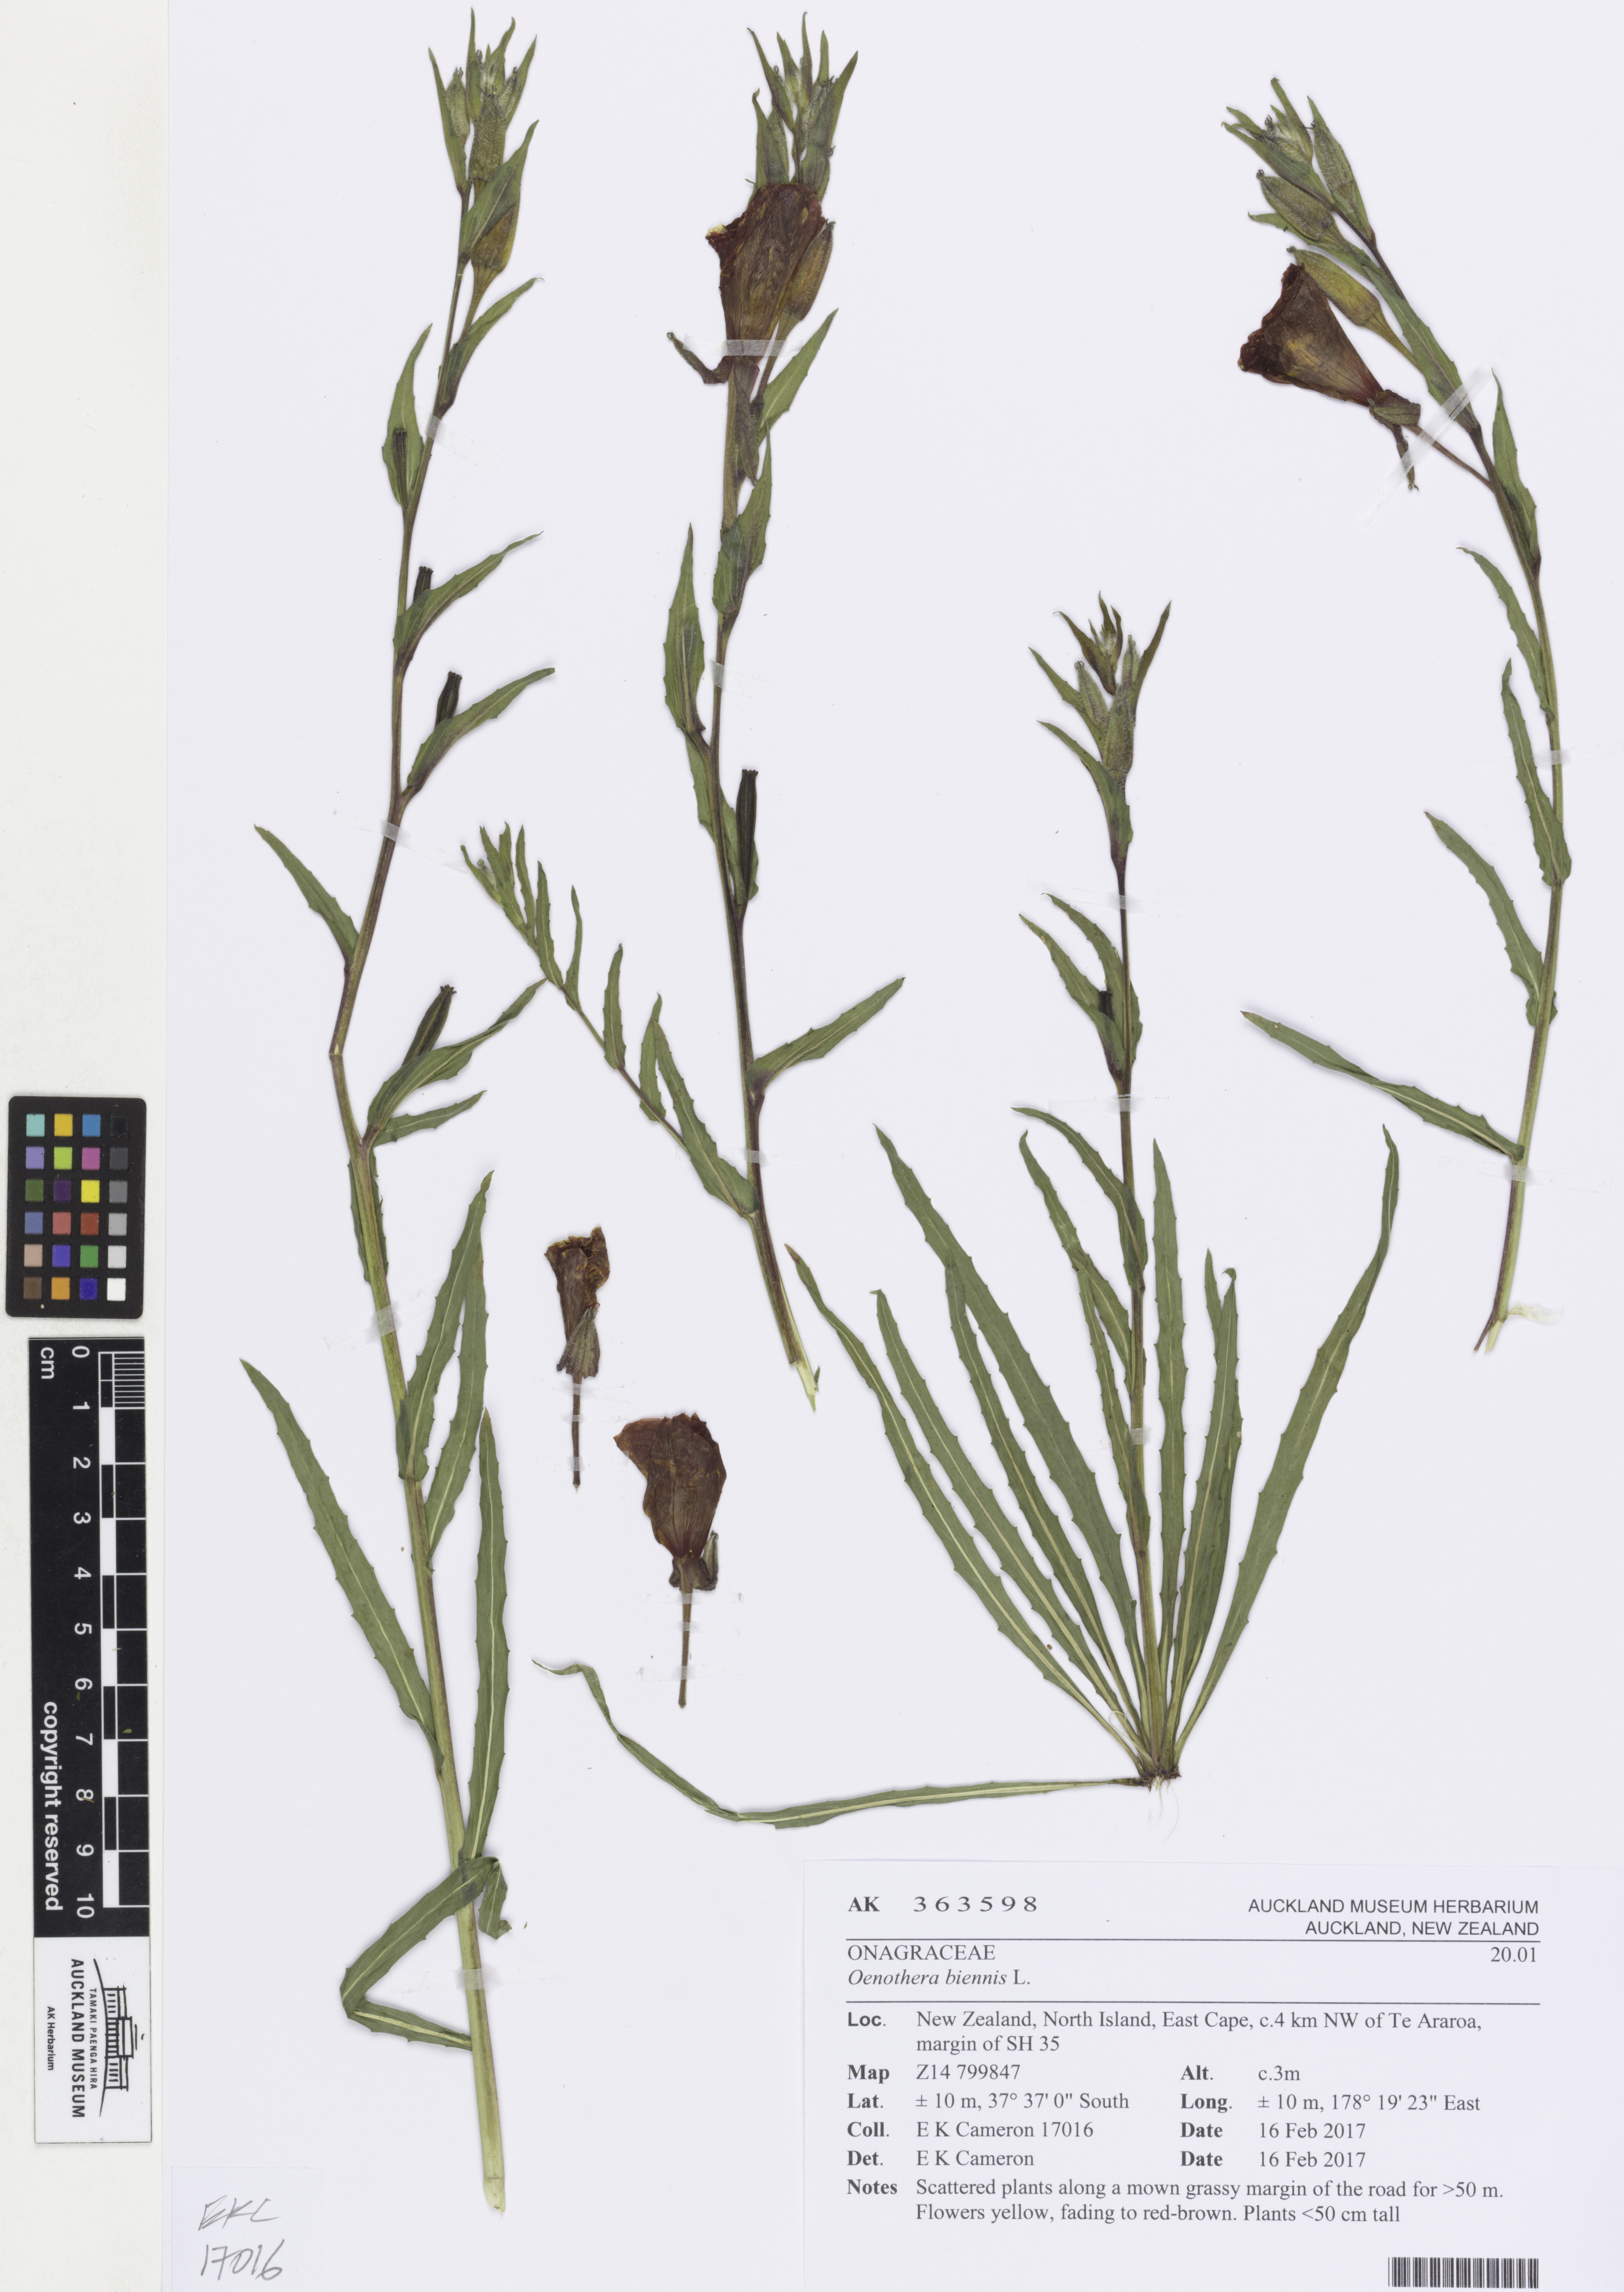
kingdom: Plantae
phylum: Tracheophyta
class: Magnoliopsida
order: Myrtales
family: Onagraceae
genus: Oenothera
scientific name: Oenothera stricta
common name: Fragrant evening-primrose
